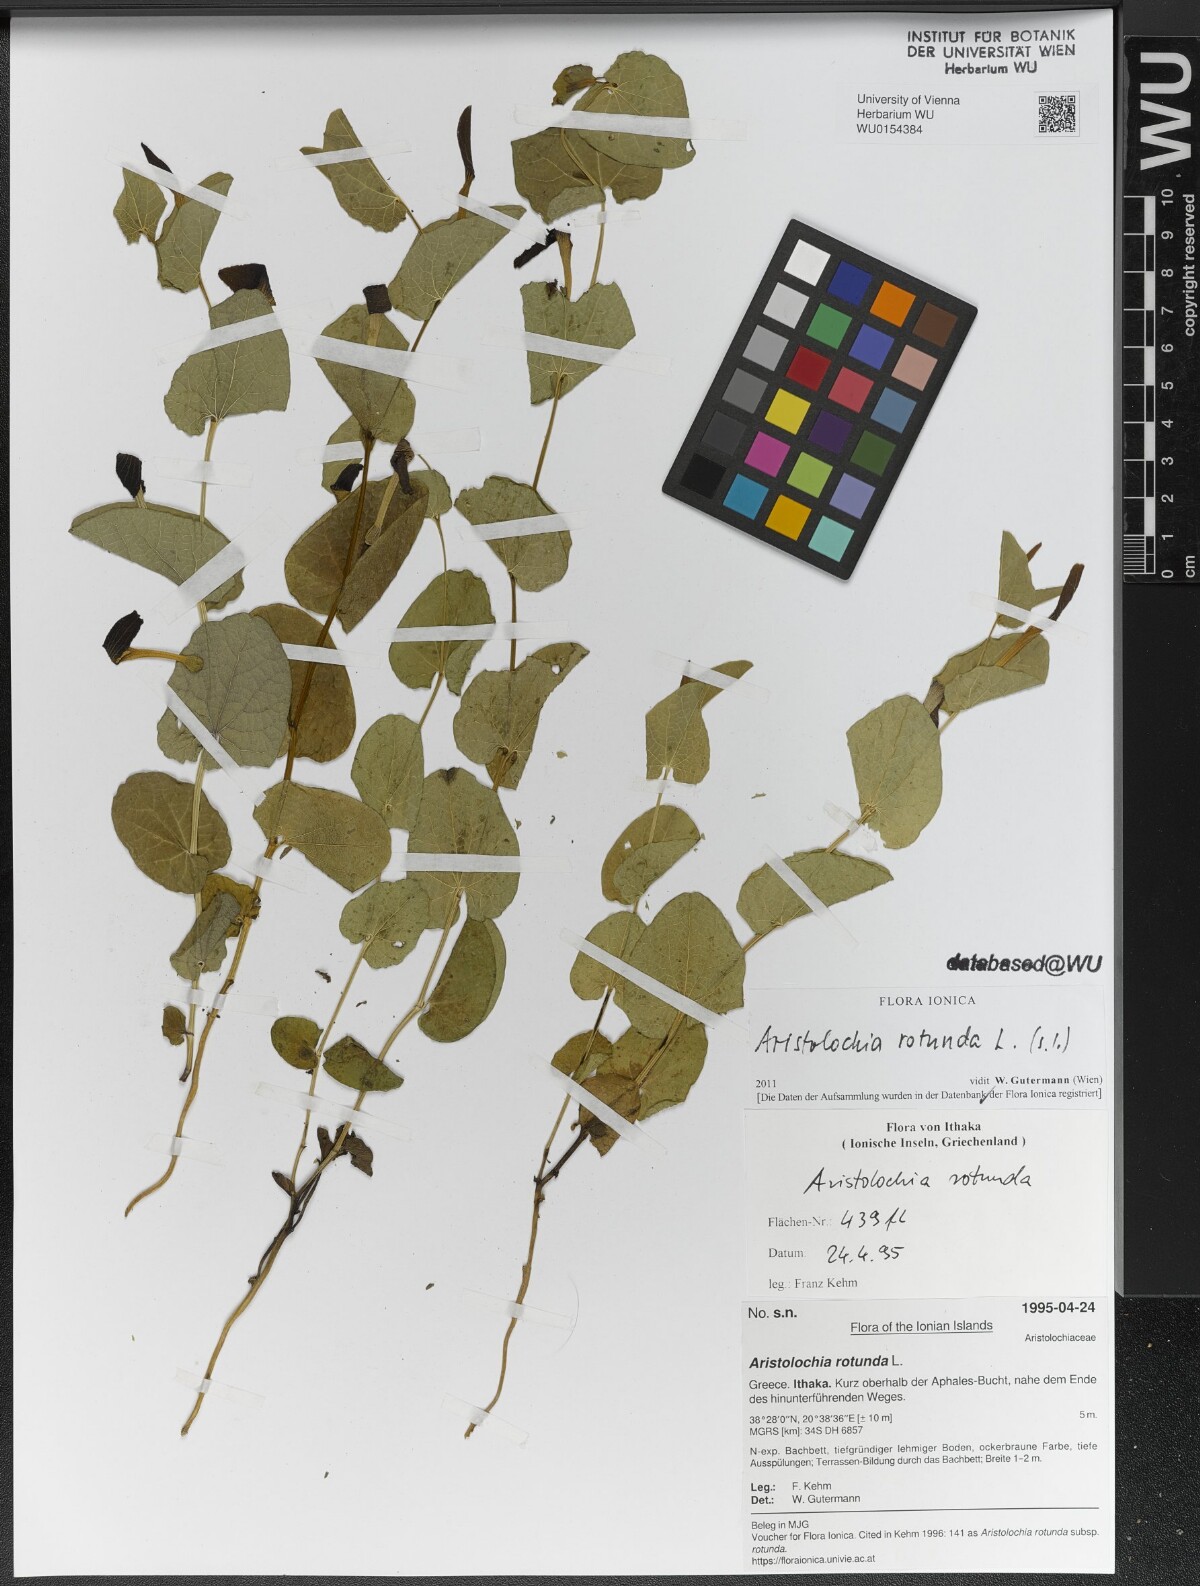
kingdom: Plantae
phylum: Tracheophyta
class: Magnoliopsida
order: Piperales
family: Aristolochiaceae
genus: Aristolochia
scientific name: Aristolochia rotunda
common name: Smearwort
